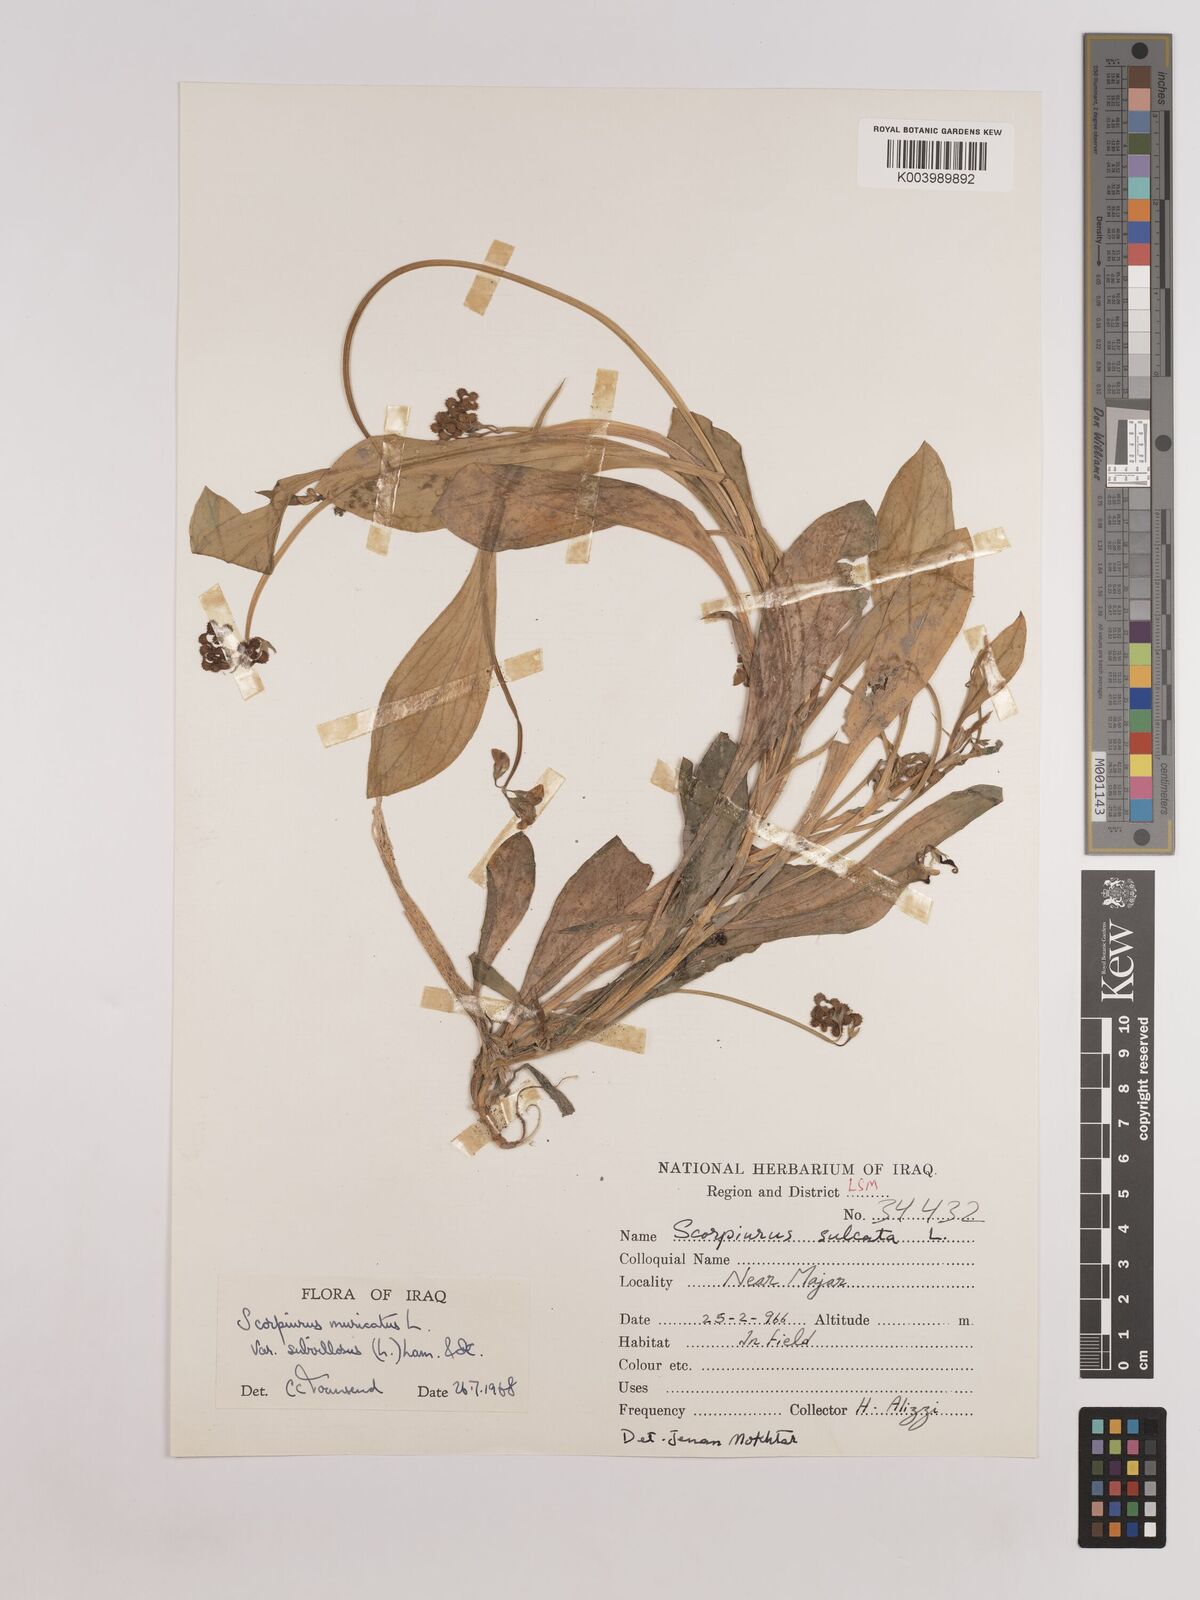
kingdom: Plantae
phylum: Tracheophyta
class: Magnoliopsida
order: Fabales
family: Fabaceae
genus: Scorpiurus
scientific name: Scorpiurus muricatus
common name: Caterpillar-plant
